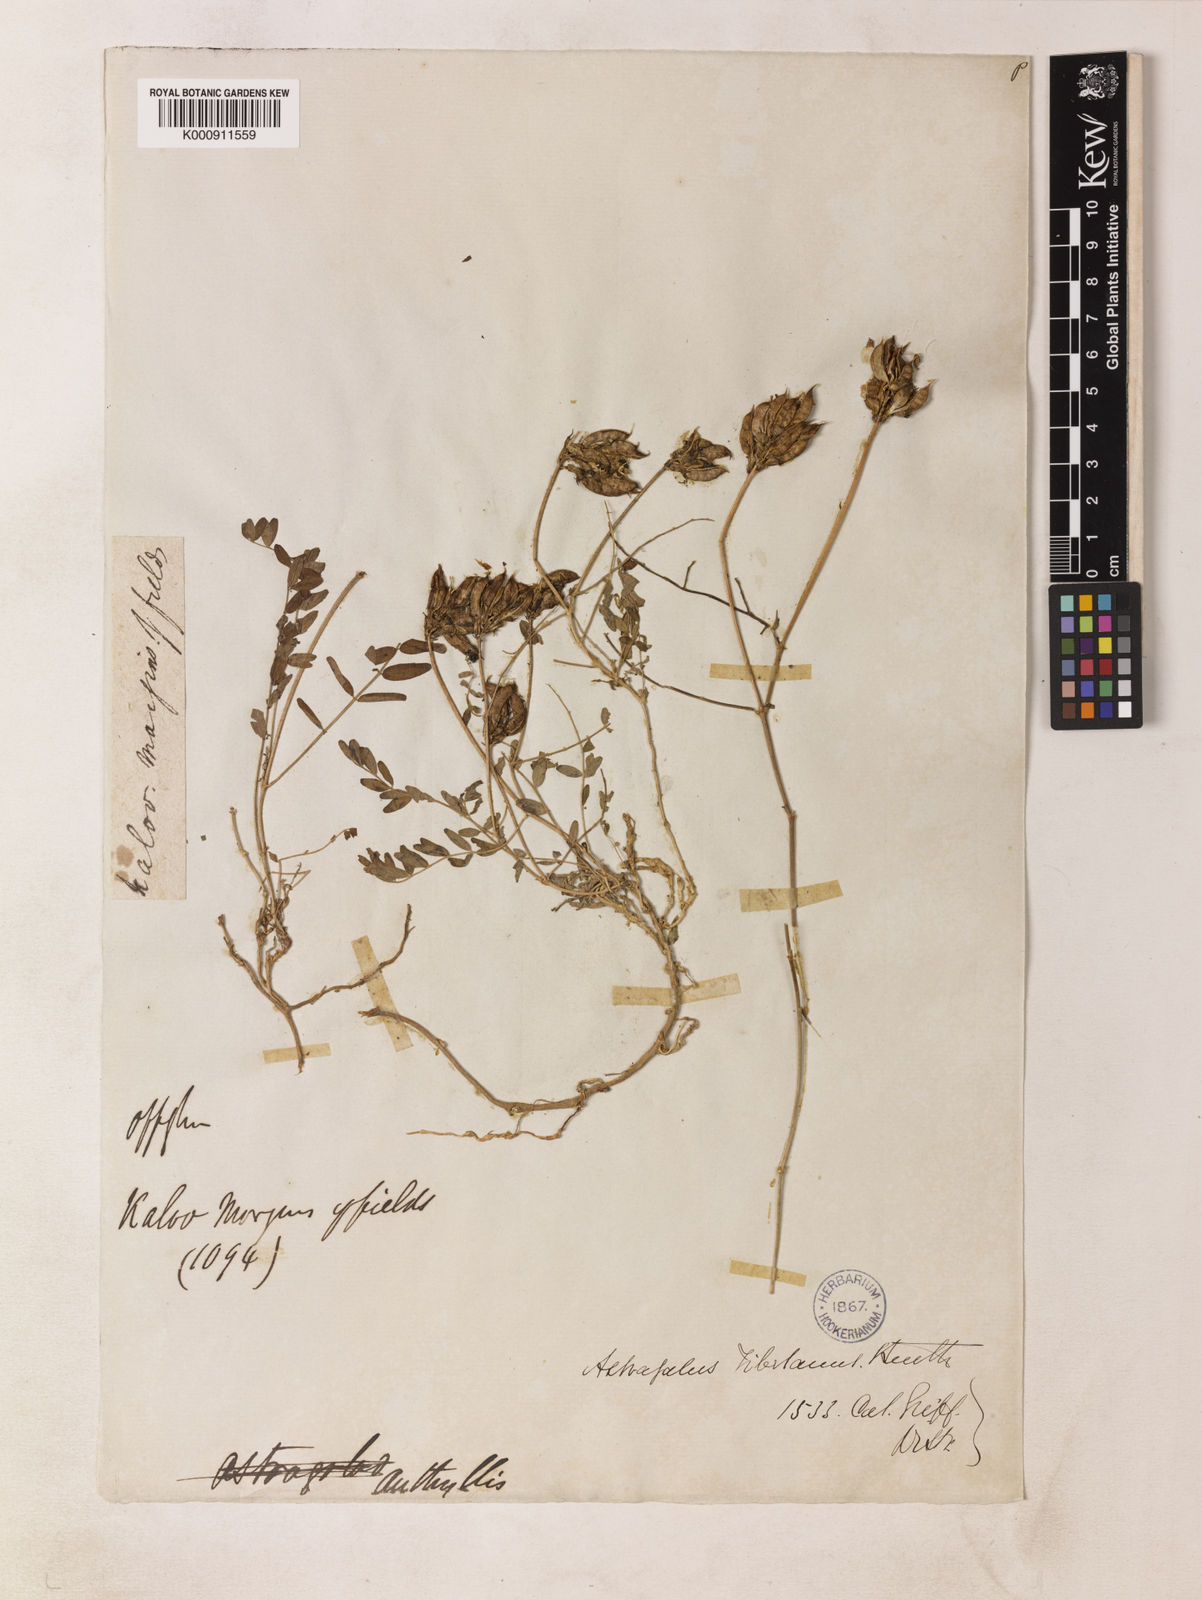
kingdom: Plantae
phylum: Tracheophyta
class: Magnoliopsida
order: Fabales
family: Fabaceae
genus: Astragalus
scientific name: Astragalus tibetanus
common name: Tibet milkvetch
